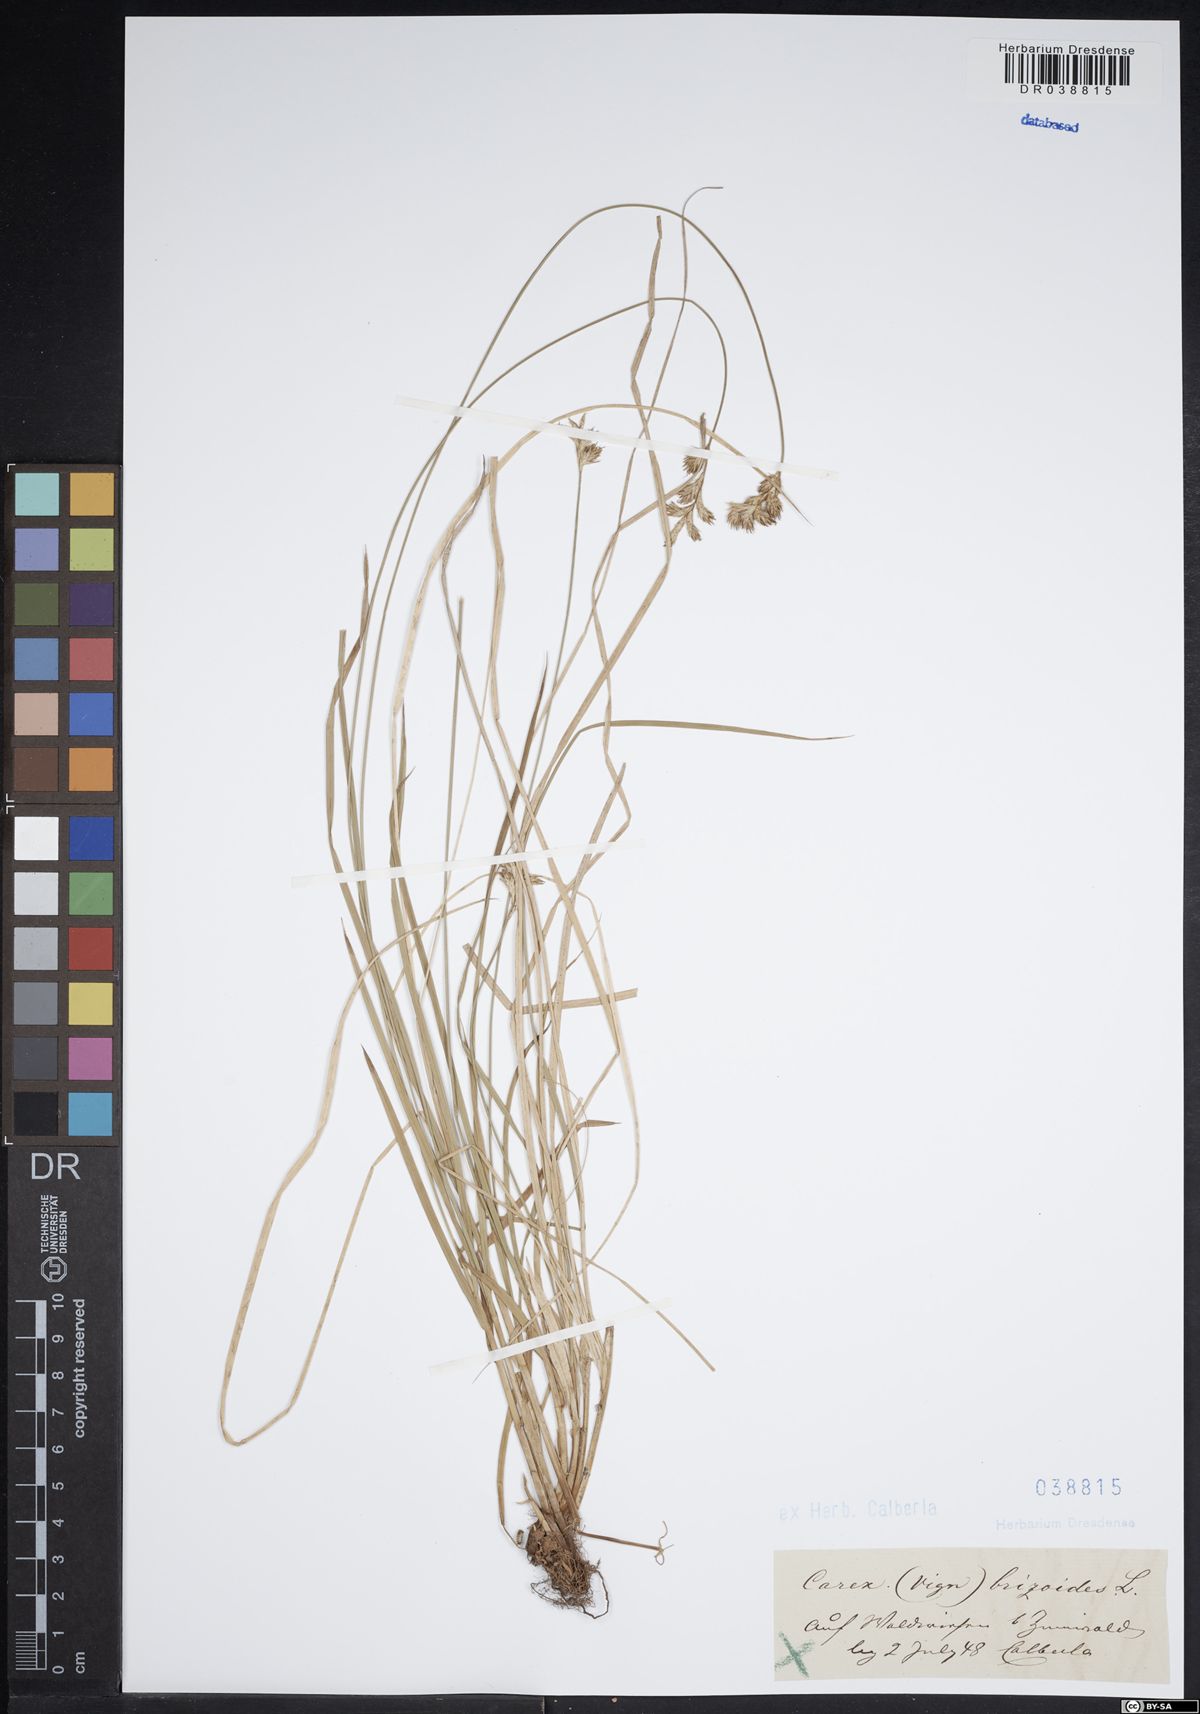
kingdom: Plantae
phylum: Tracheophyta
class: Liliopsida
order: Poales
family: Cyperaceae
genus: Carex
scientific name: Carex brizoides
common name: Quaking-grass sedge
